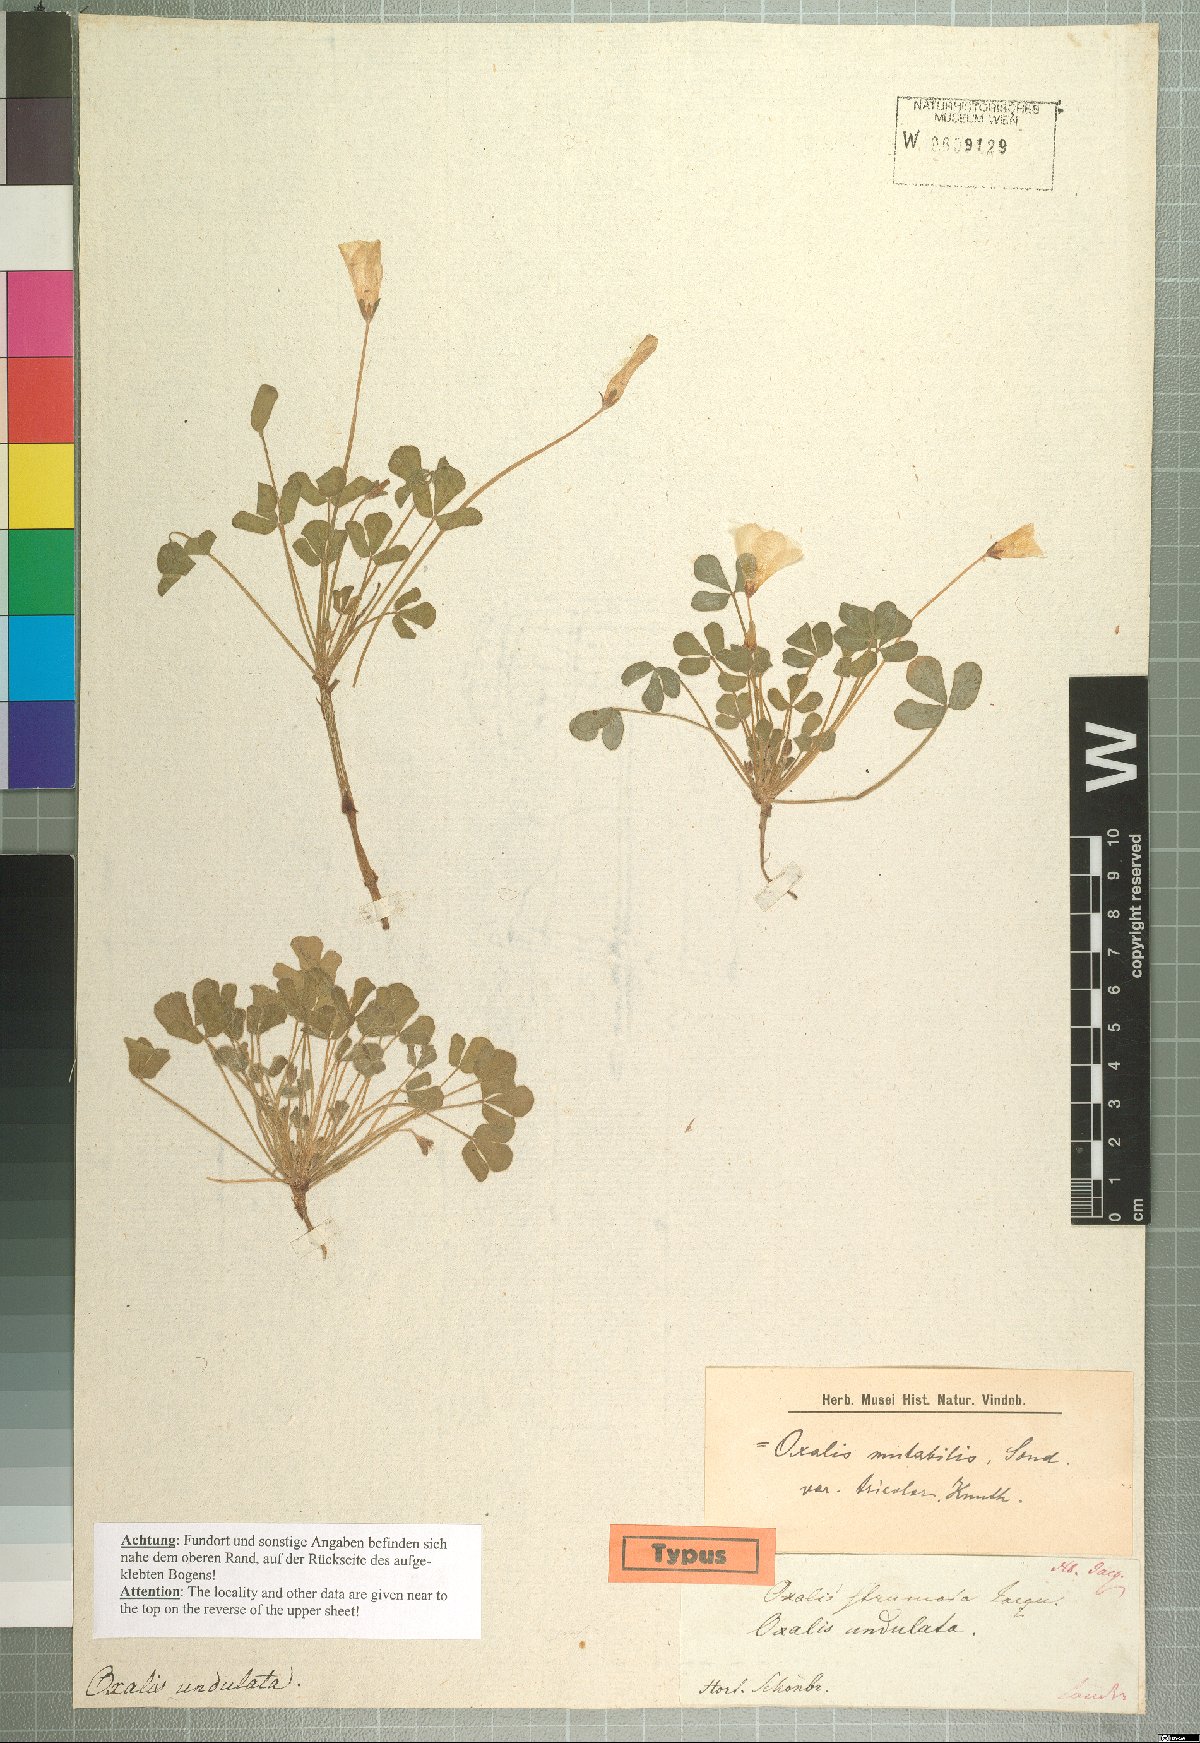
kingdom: Plantae
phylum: Tracheophyta
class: Magnoliopsida
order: Oxalidales
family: Oxalidaceae
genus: Oxalis
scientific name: Oxalis ambigua
